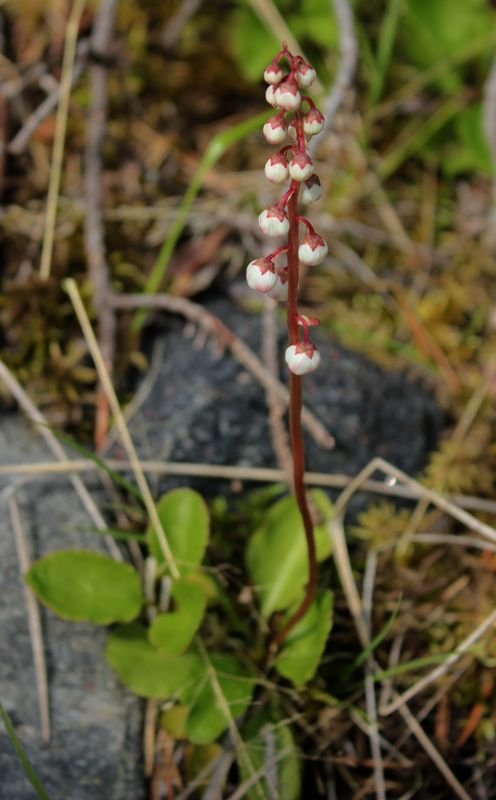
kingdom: Plantae
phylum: Tracheophyta
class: Magnoliopsida
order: Ericales
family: Ericaceae
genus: Pyrola
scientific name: Pyrola minor
